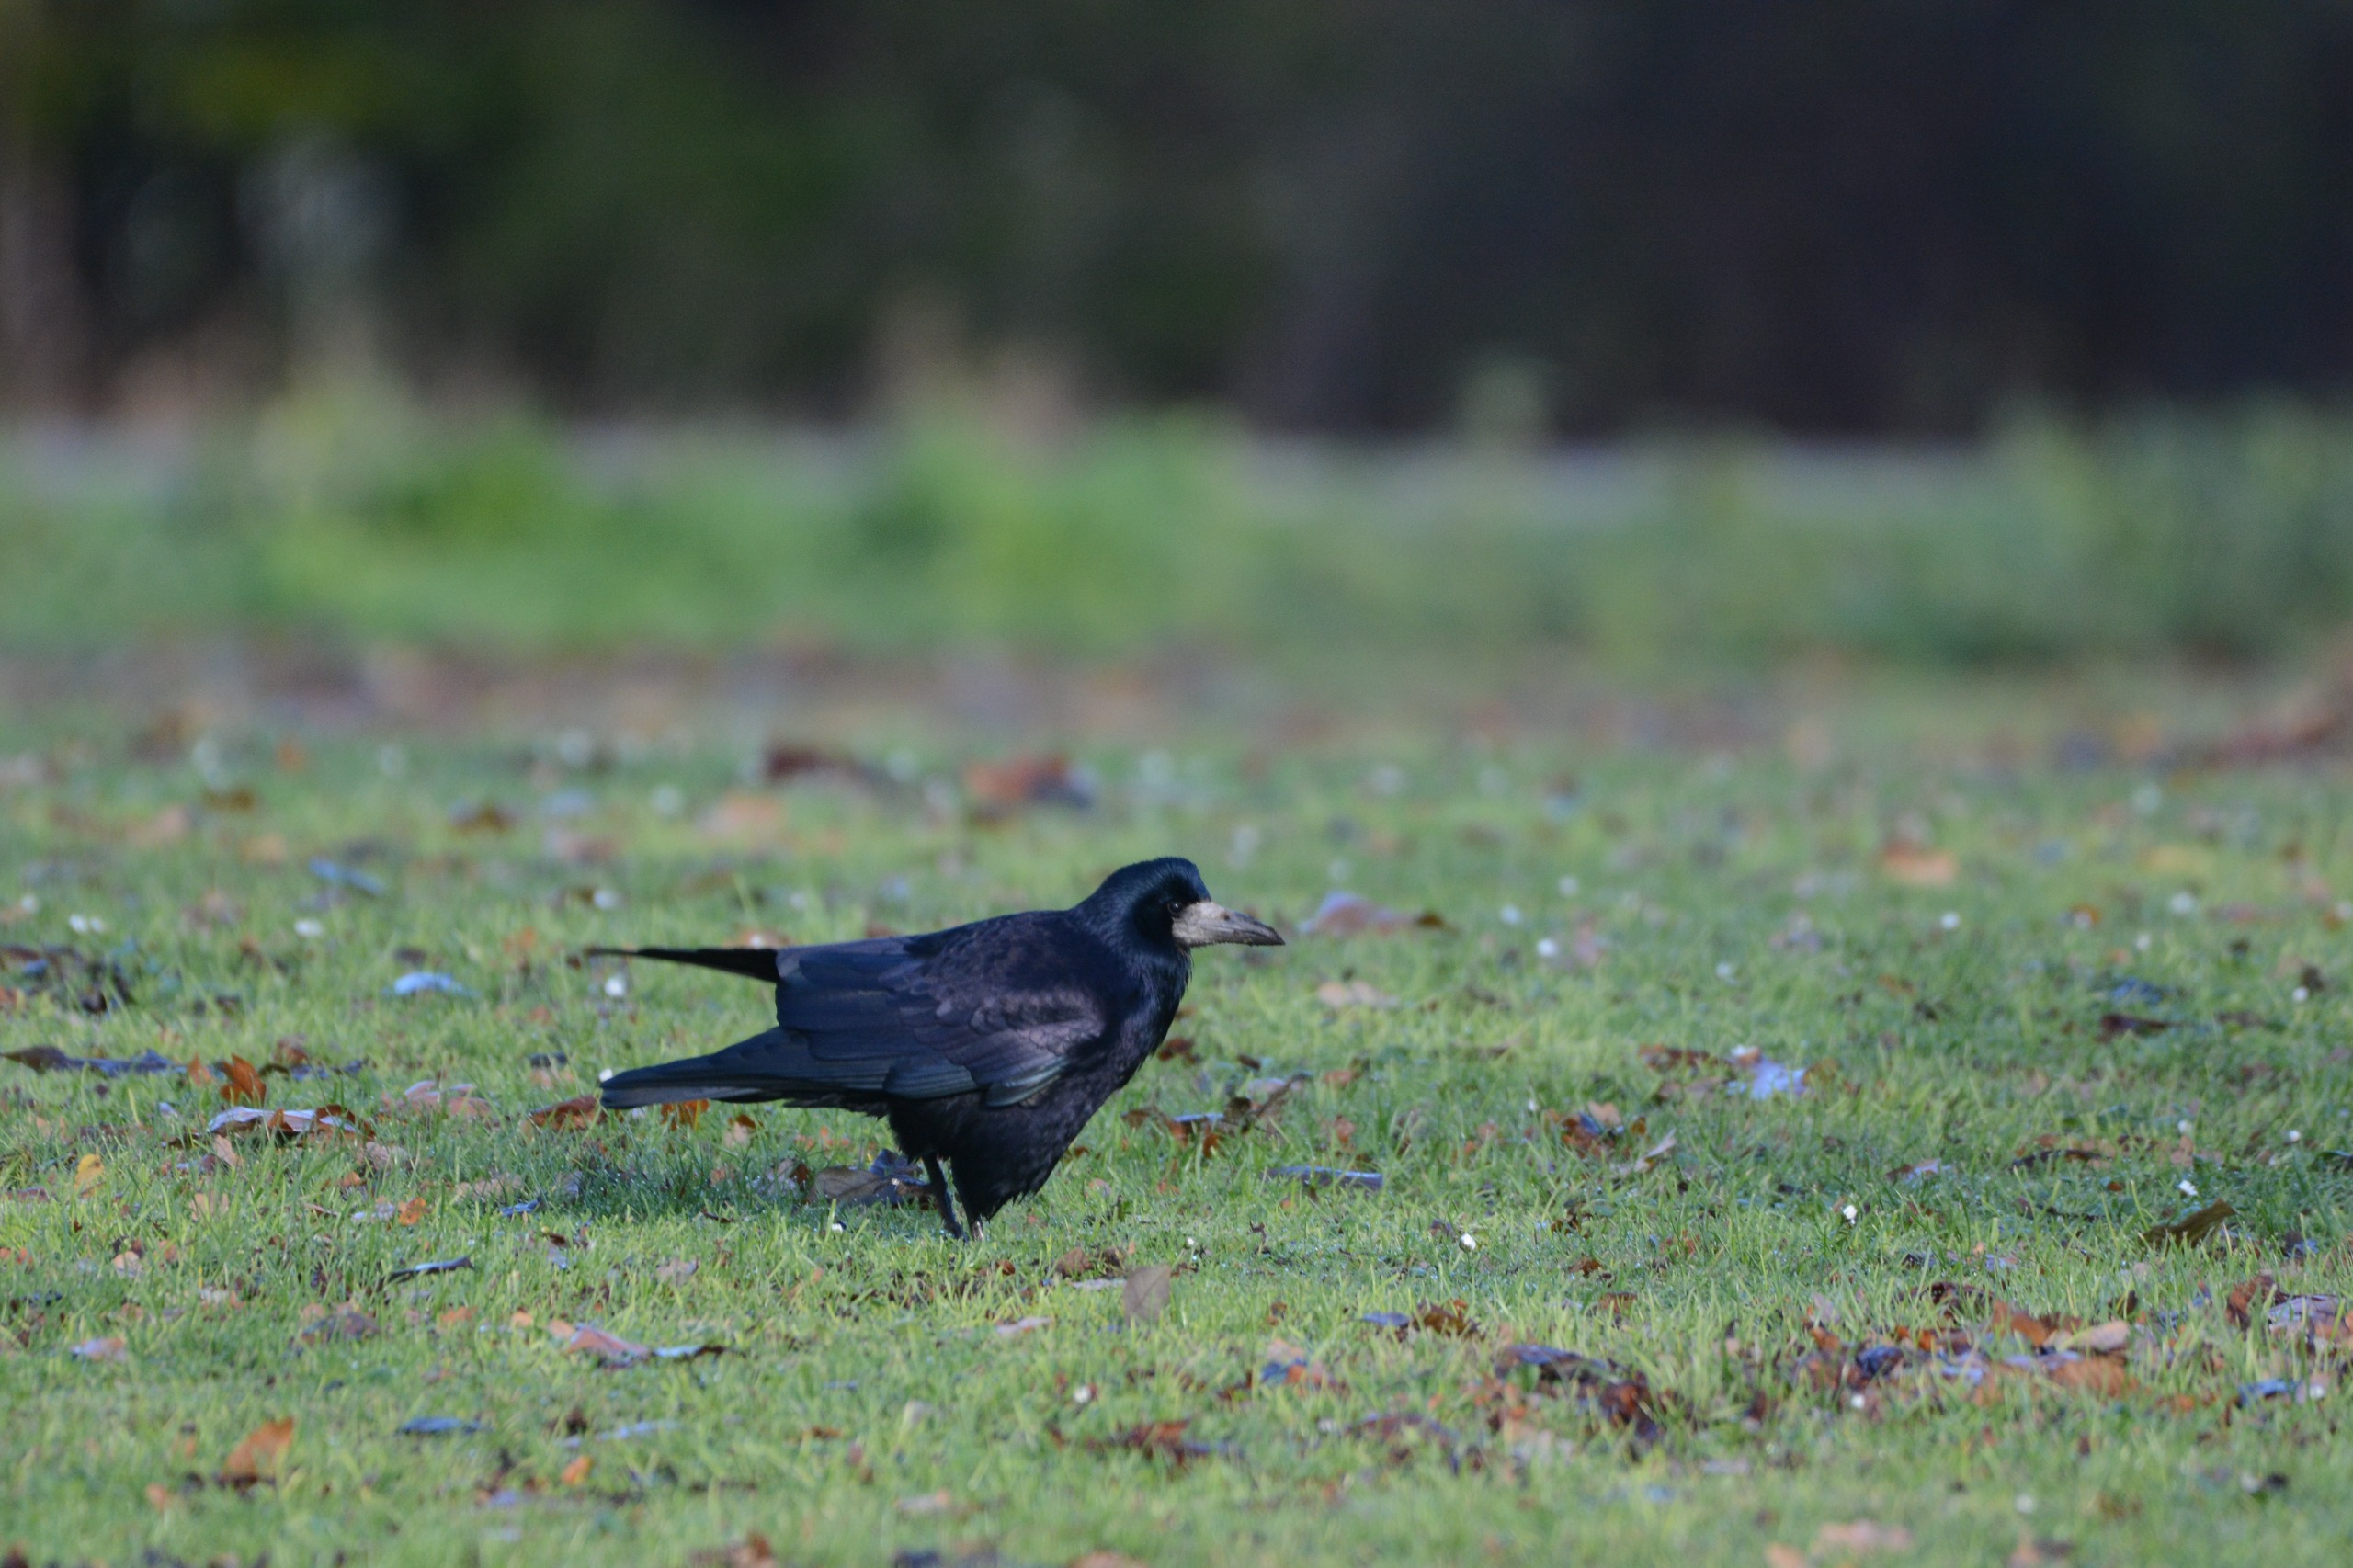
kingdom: Animalia
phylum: Chordata
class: Aves
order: Passeriformes
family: Corvidae
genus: Corvus
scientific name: Corvus frugilegus
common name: Råge
